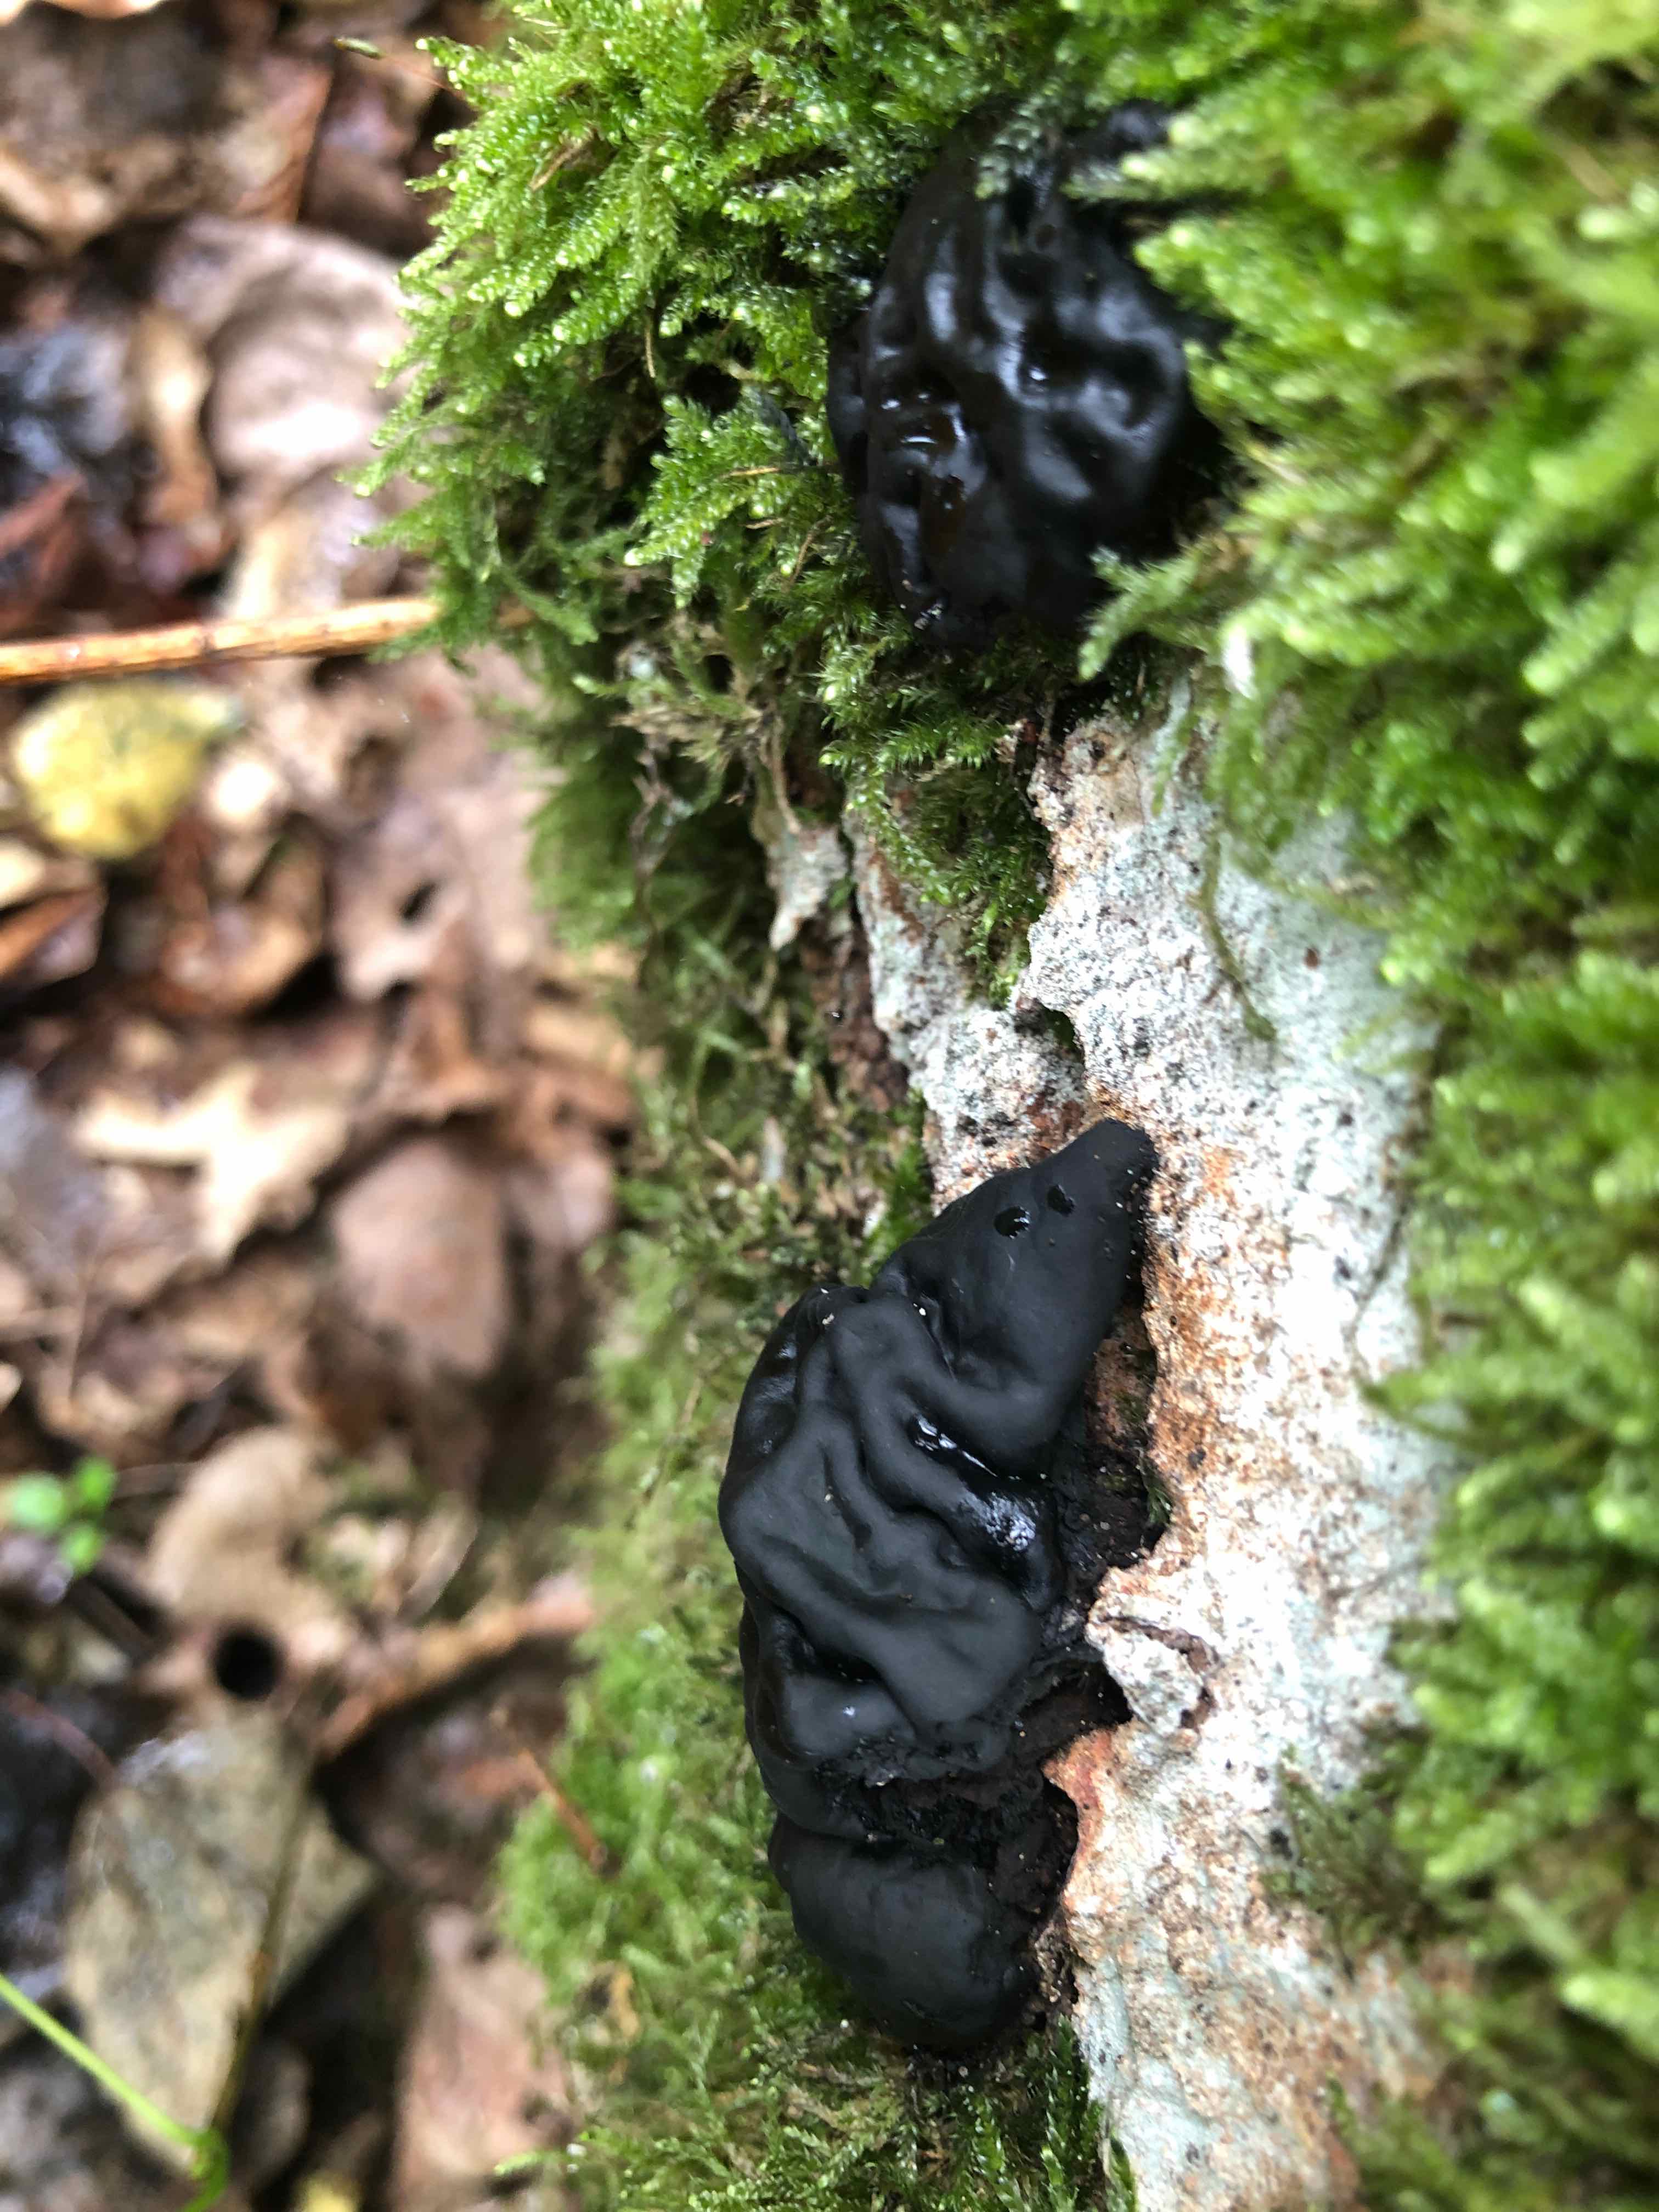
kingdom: Fungi
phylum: Basidiomycota
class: Agaricomycetes
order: Auriculariales
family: Auriculariaceae
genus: Exidia
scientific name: Exidia glandulosa
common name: ege-bævretop
